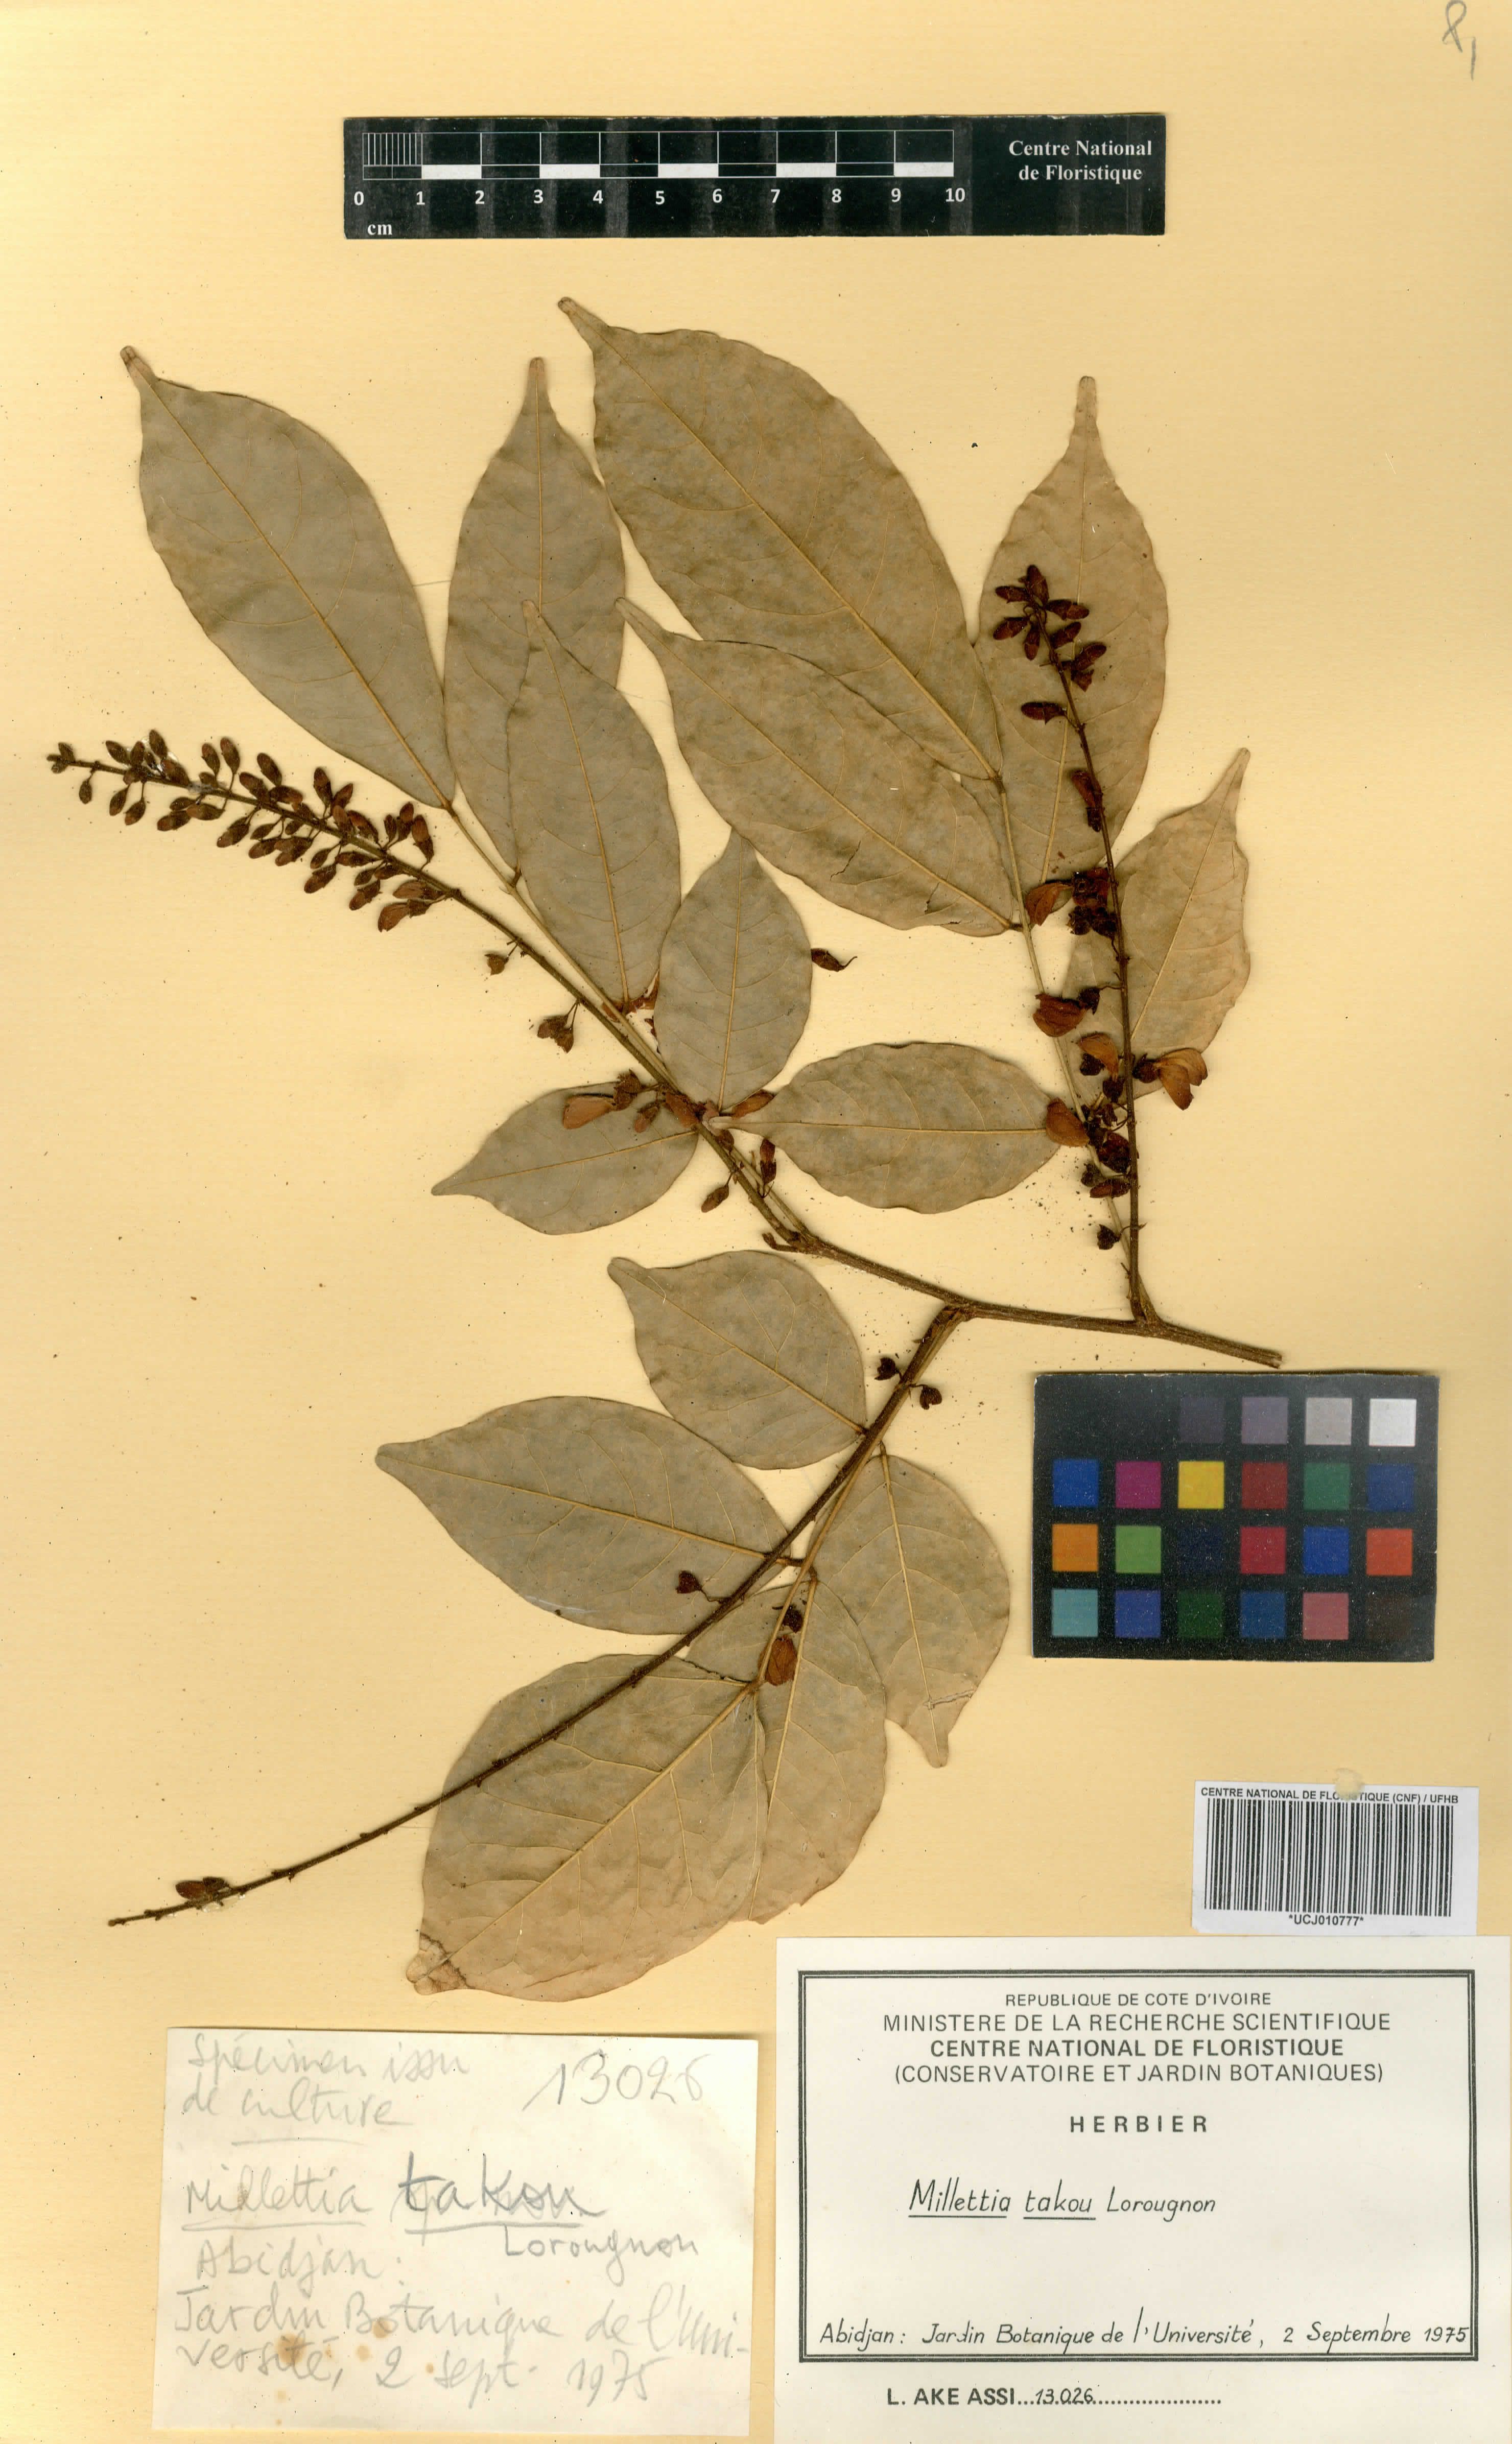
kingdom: Plantae
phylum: Tracheophyta
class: Magnoliopsida
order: Fabales
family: Fabaceae
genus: Millettia
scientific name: Millettia takou
